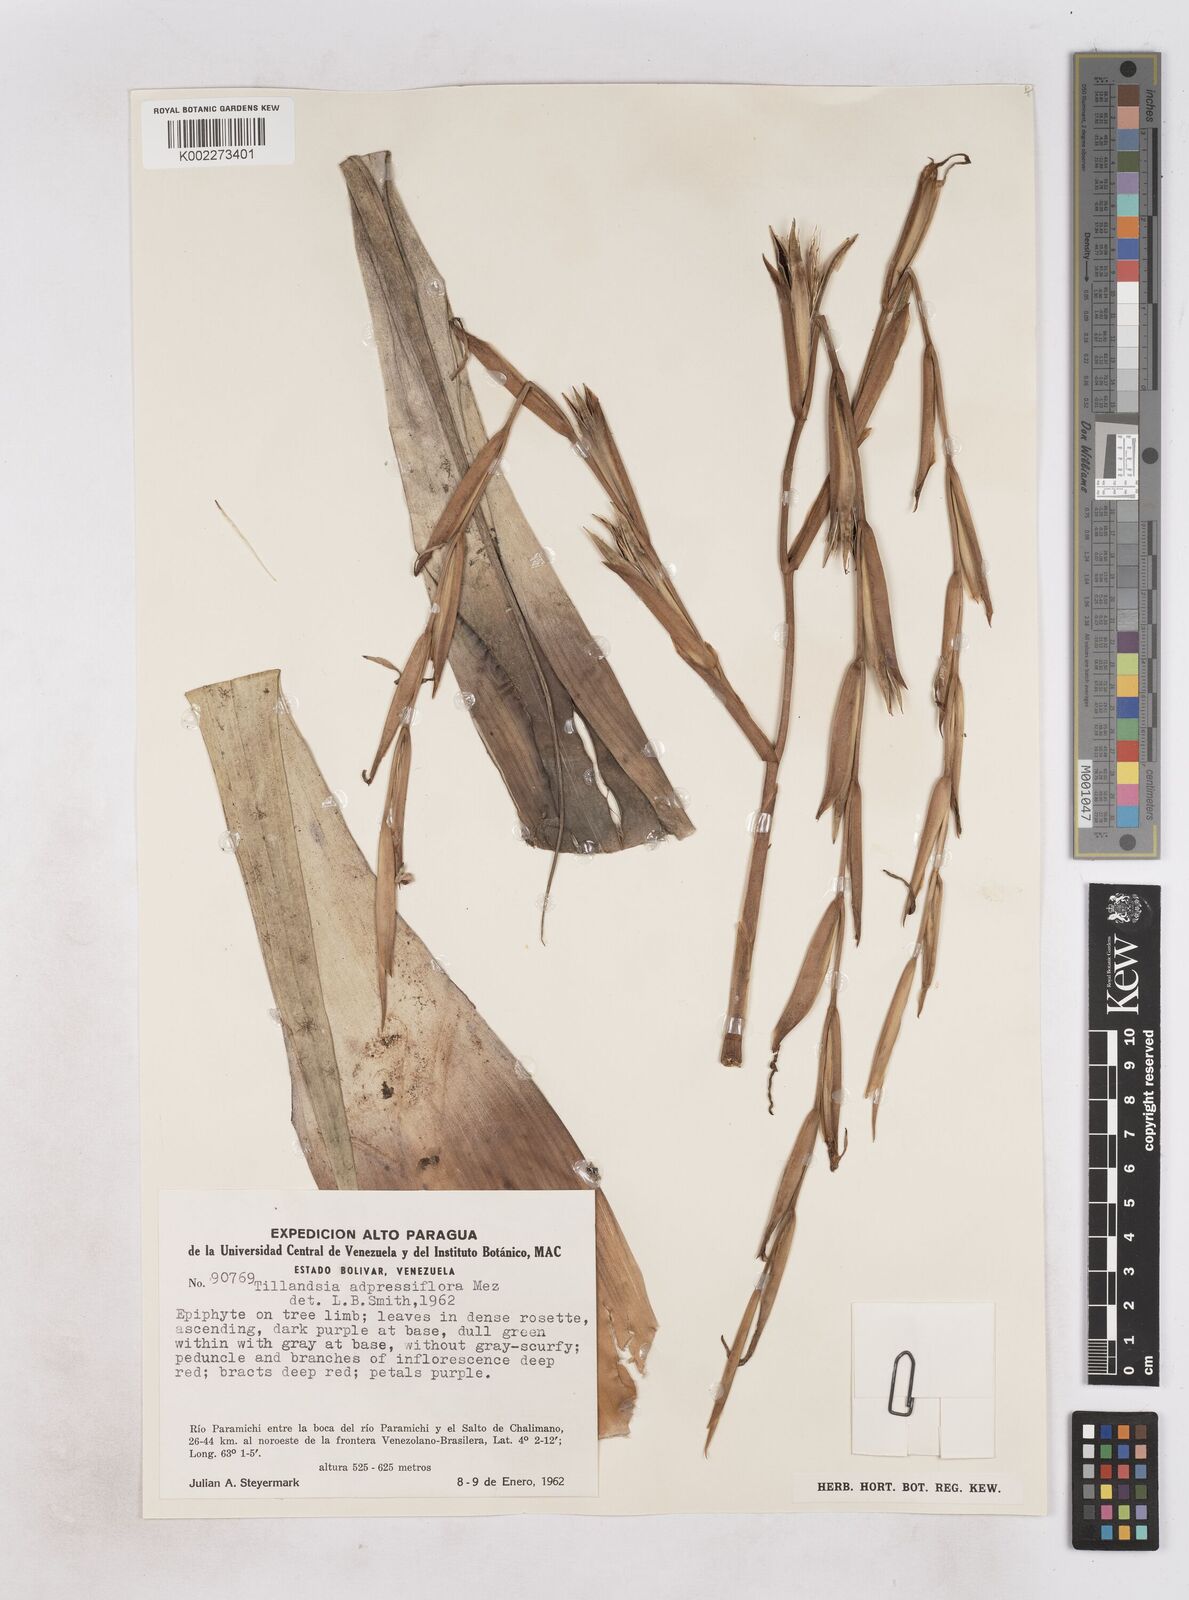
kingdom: Plantae
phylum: Tracheophyta
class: Liliopsida
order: Poales
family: Bromeliaceae
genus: Tillandsia
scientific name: Tillandsia adpressiflora
